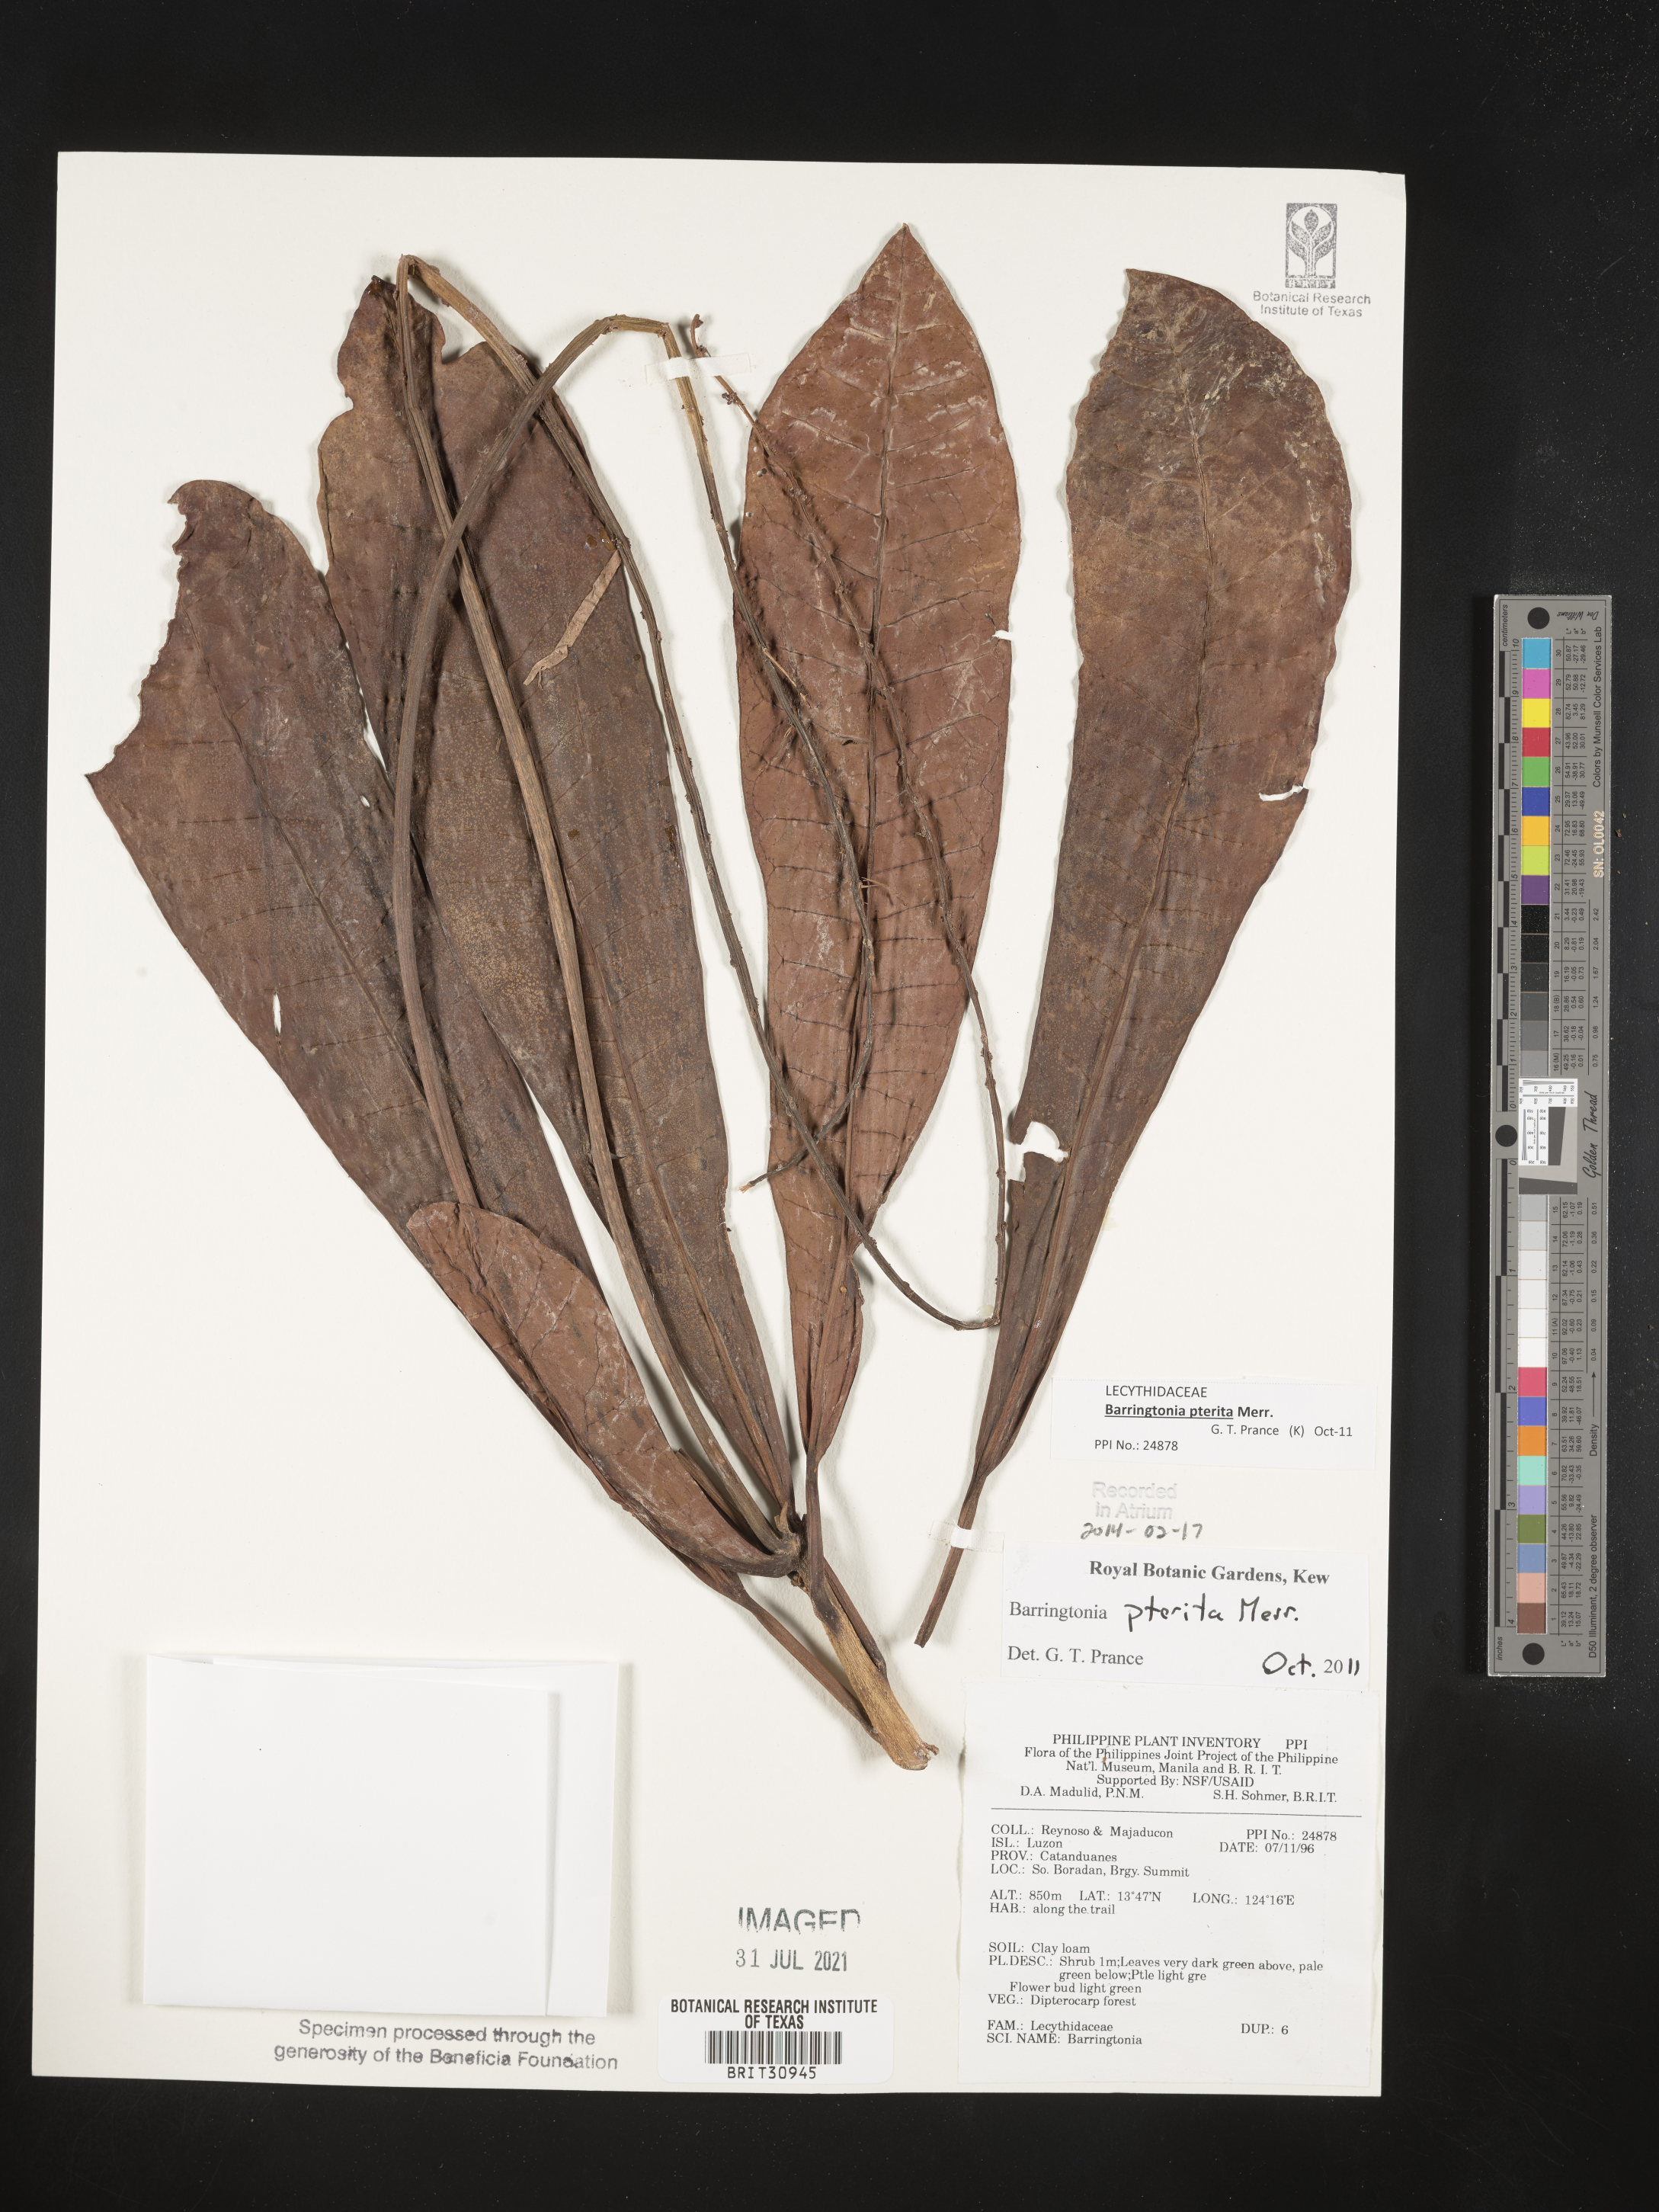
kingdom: Plantae
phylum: Tracheophyta
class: Magnoliopsida
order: Ericales
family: Lecythidaceae
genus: Barringtonia
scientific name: Barringtonia
